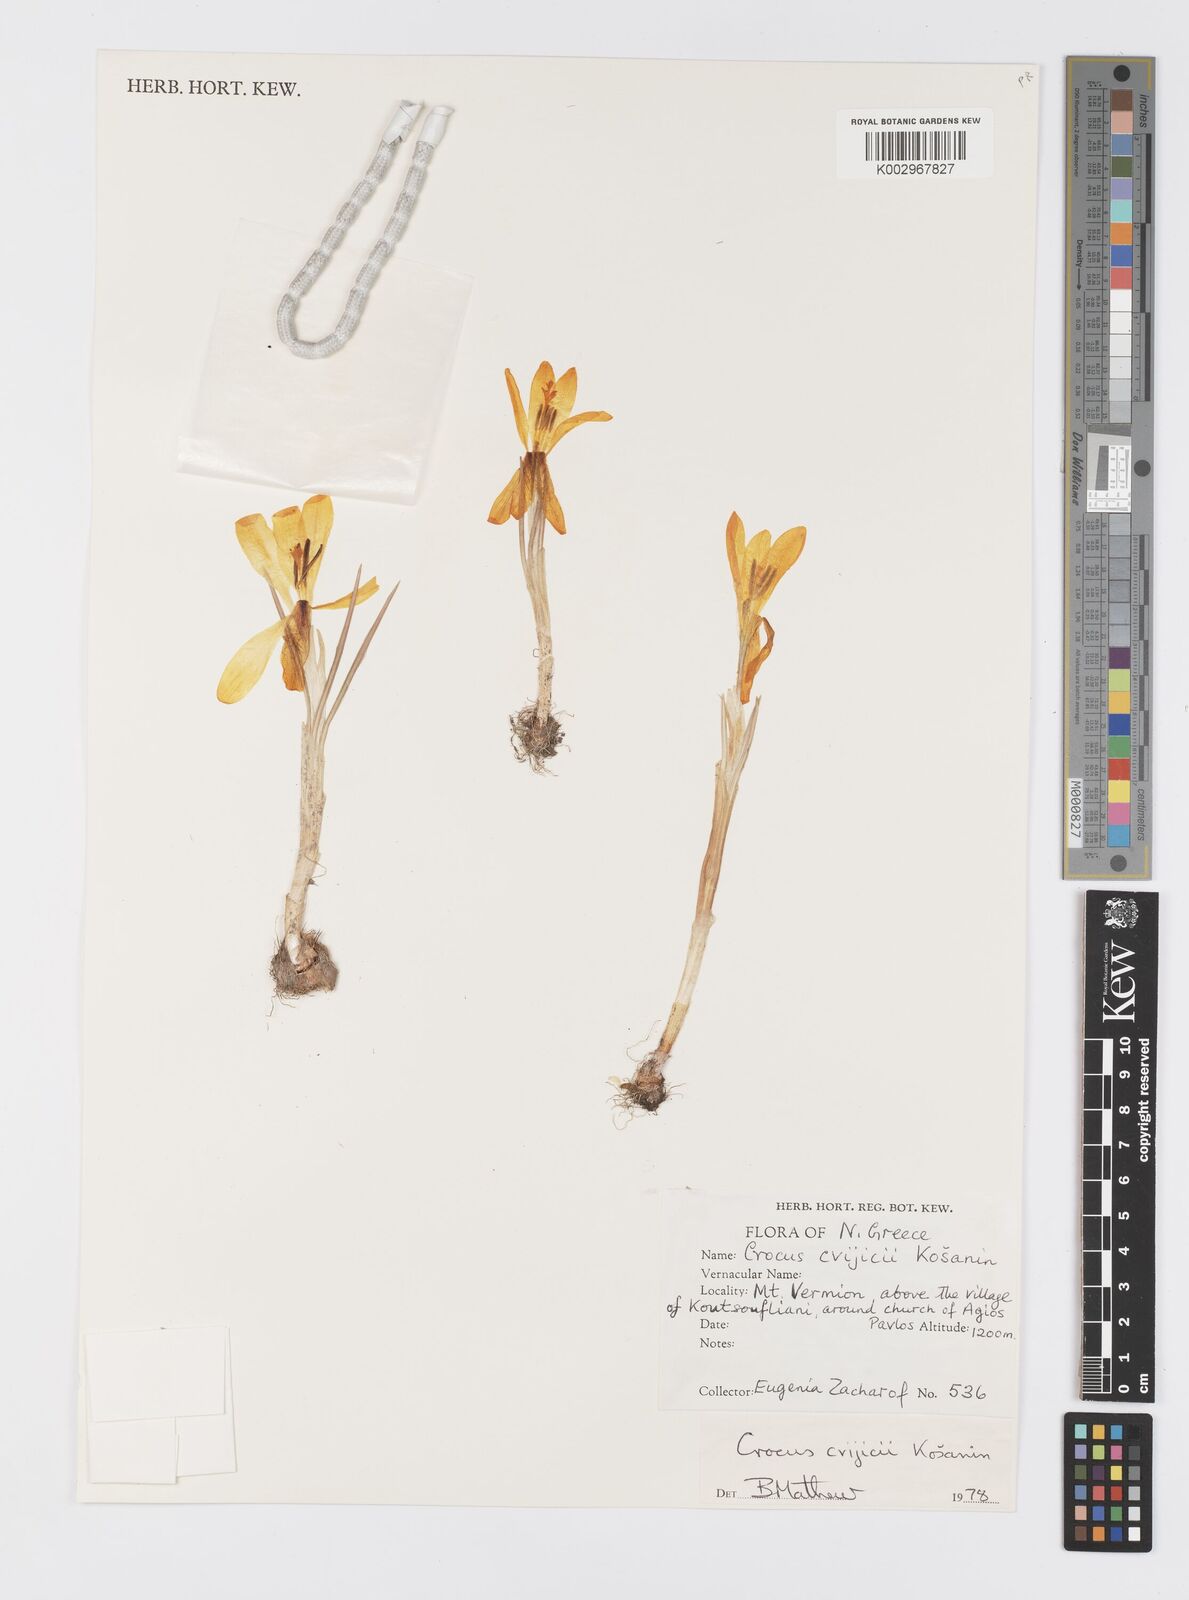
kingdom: Plantae
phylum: Tracheophyta
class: Liliopsida
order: Asparagales
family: Iridaceae
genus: Crocus
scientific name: Crocus cvijicii
